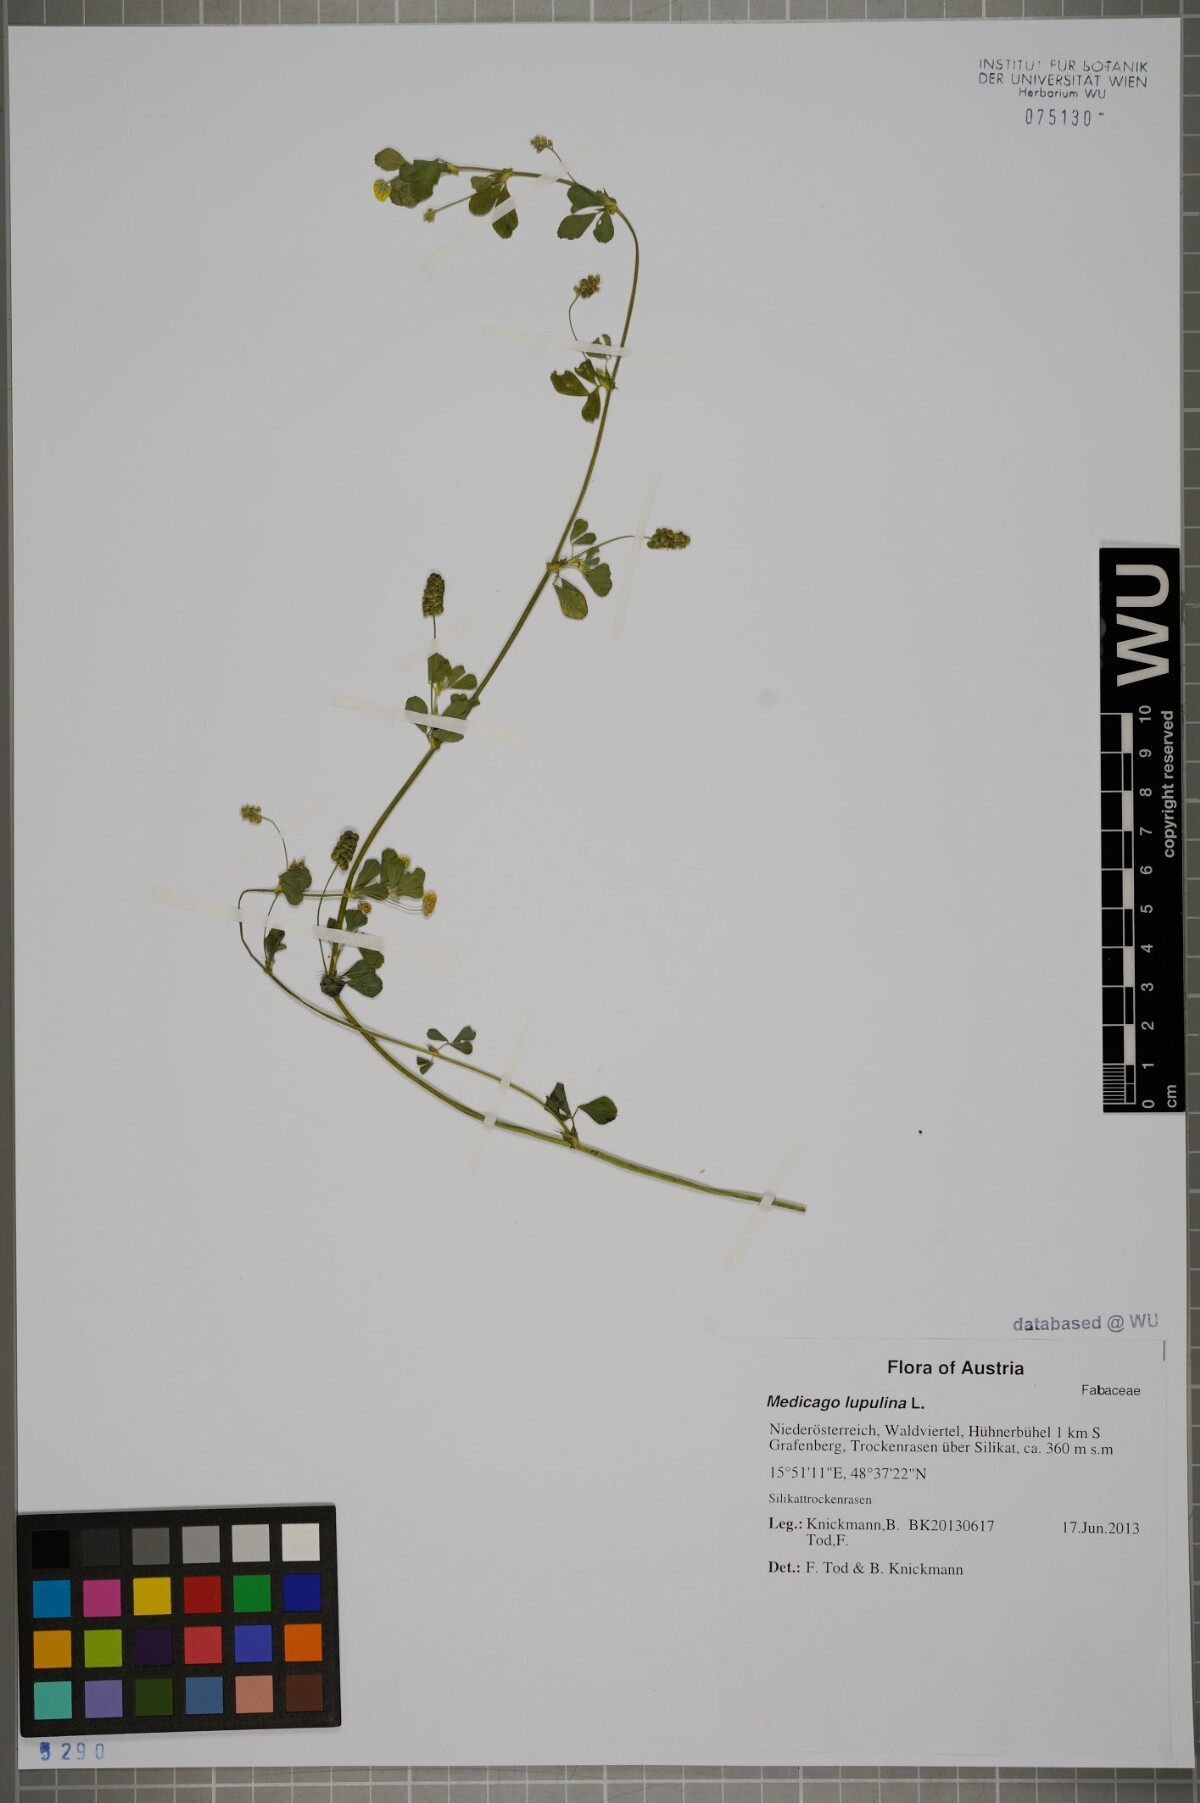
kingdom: Plantae
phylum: Tracheophyta
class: Magnoliopsida
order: Fabales
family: Fabaceae
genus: Medicago
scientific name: Medicago lupulina
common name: Black medick
